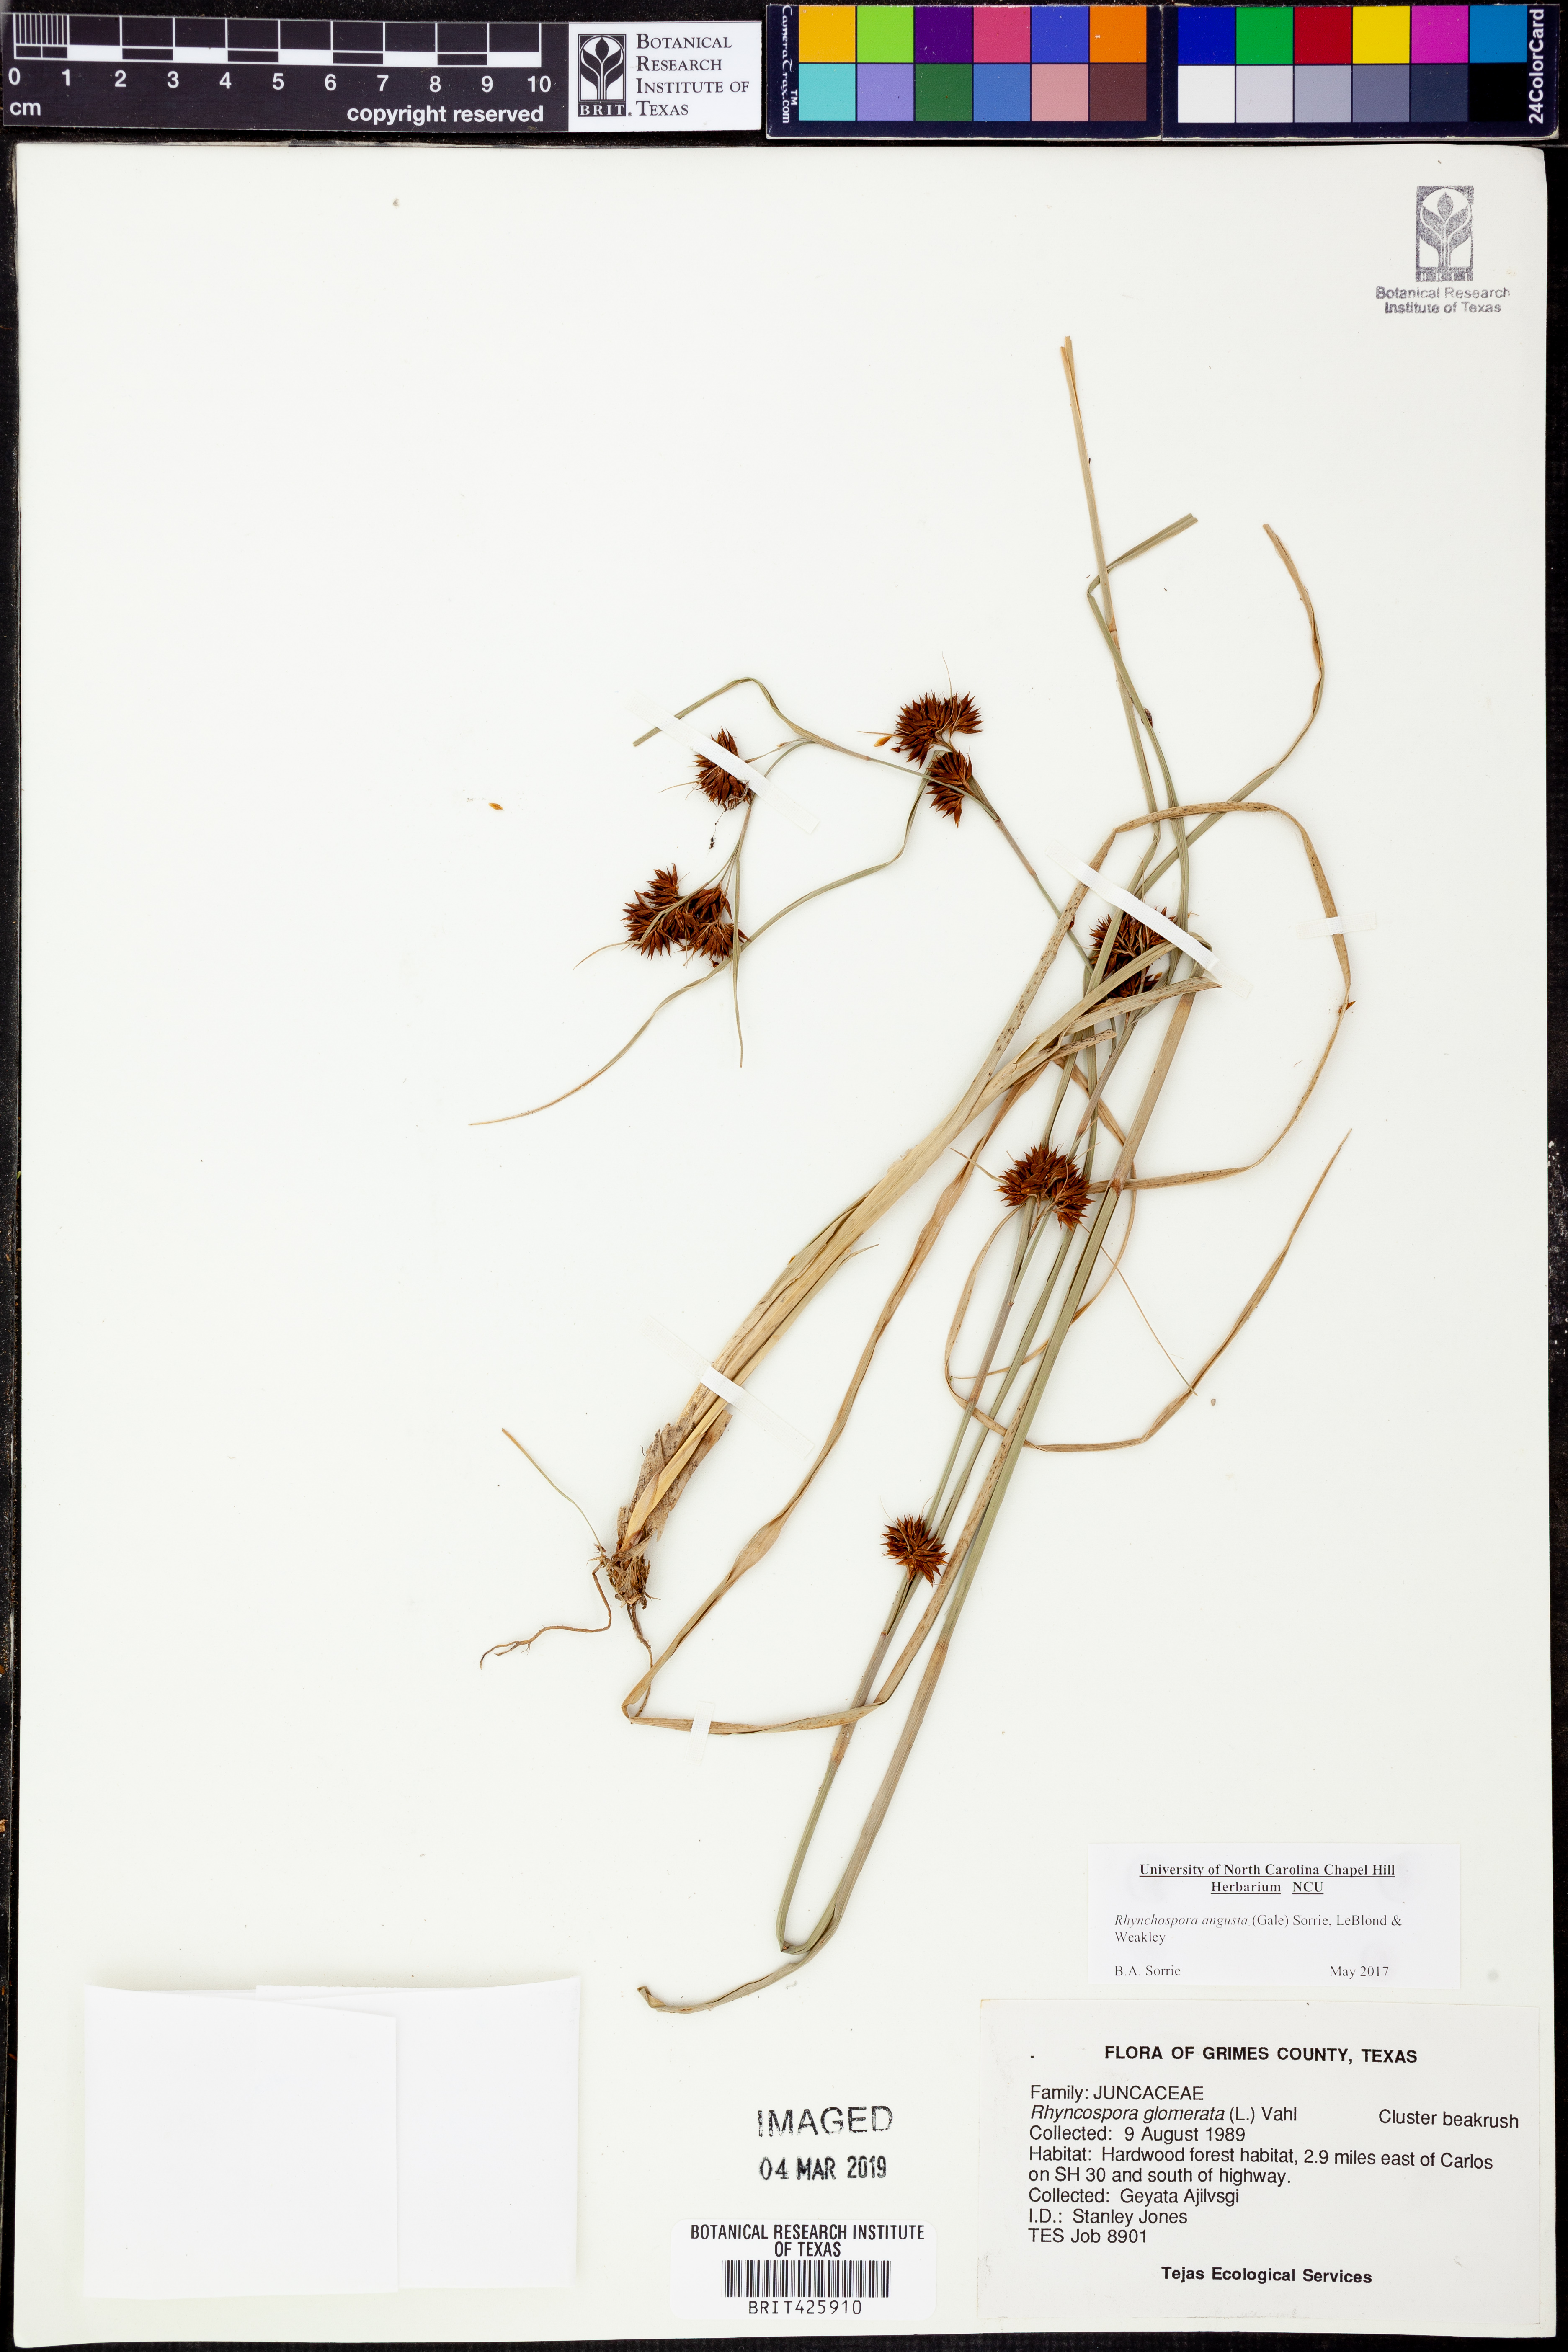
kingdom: Plantae
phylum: Tracheophyta
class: Liliopsida
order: Poales
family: Cyperaceae
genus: Rhynchospora
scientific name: Rhynchospora angusta
